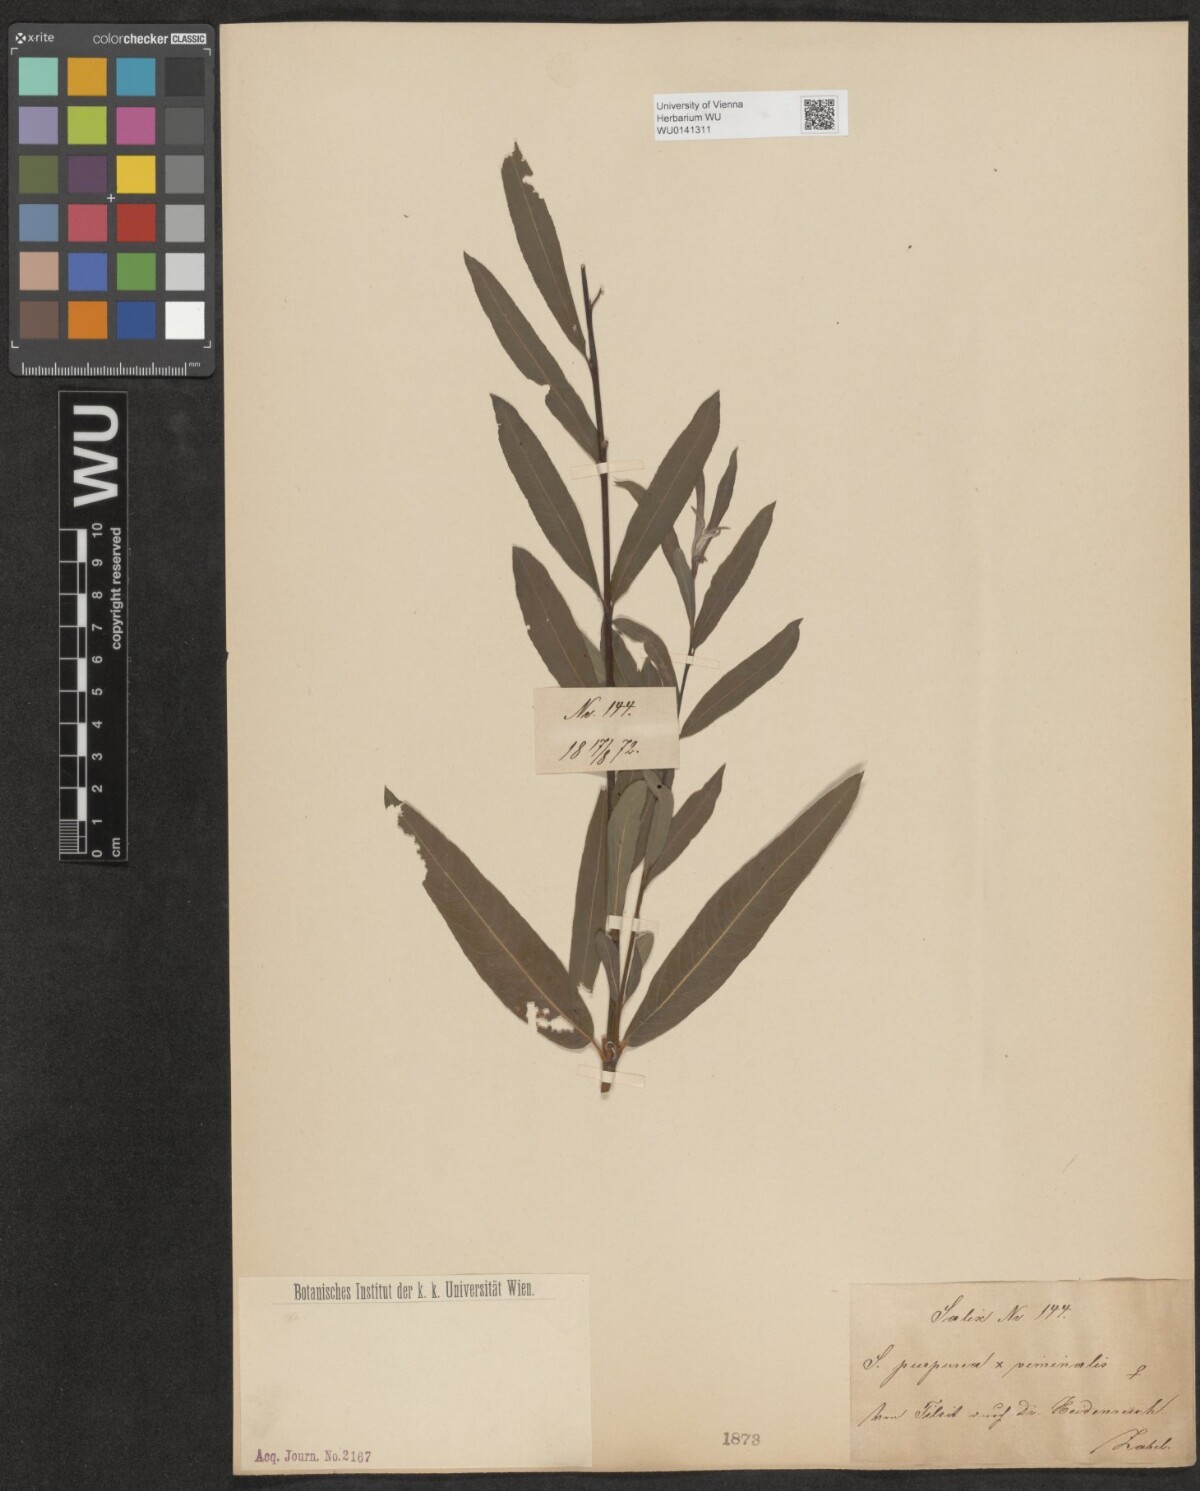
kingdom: Plantae
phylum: Tracheophyta
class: Magnoliopsida
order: Malpighiales
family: Salicaceae
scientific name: Salicaceae
